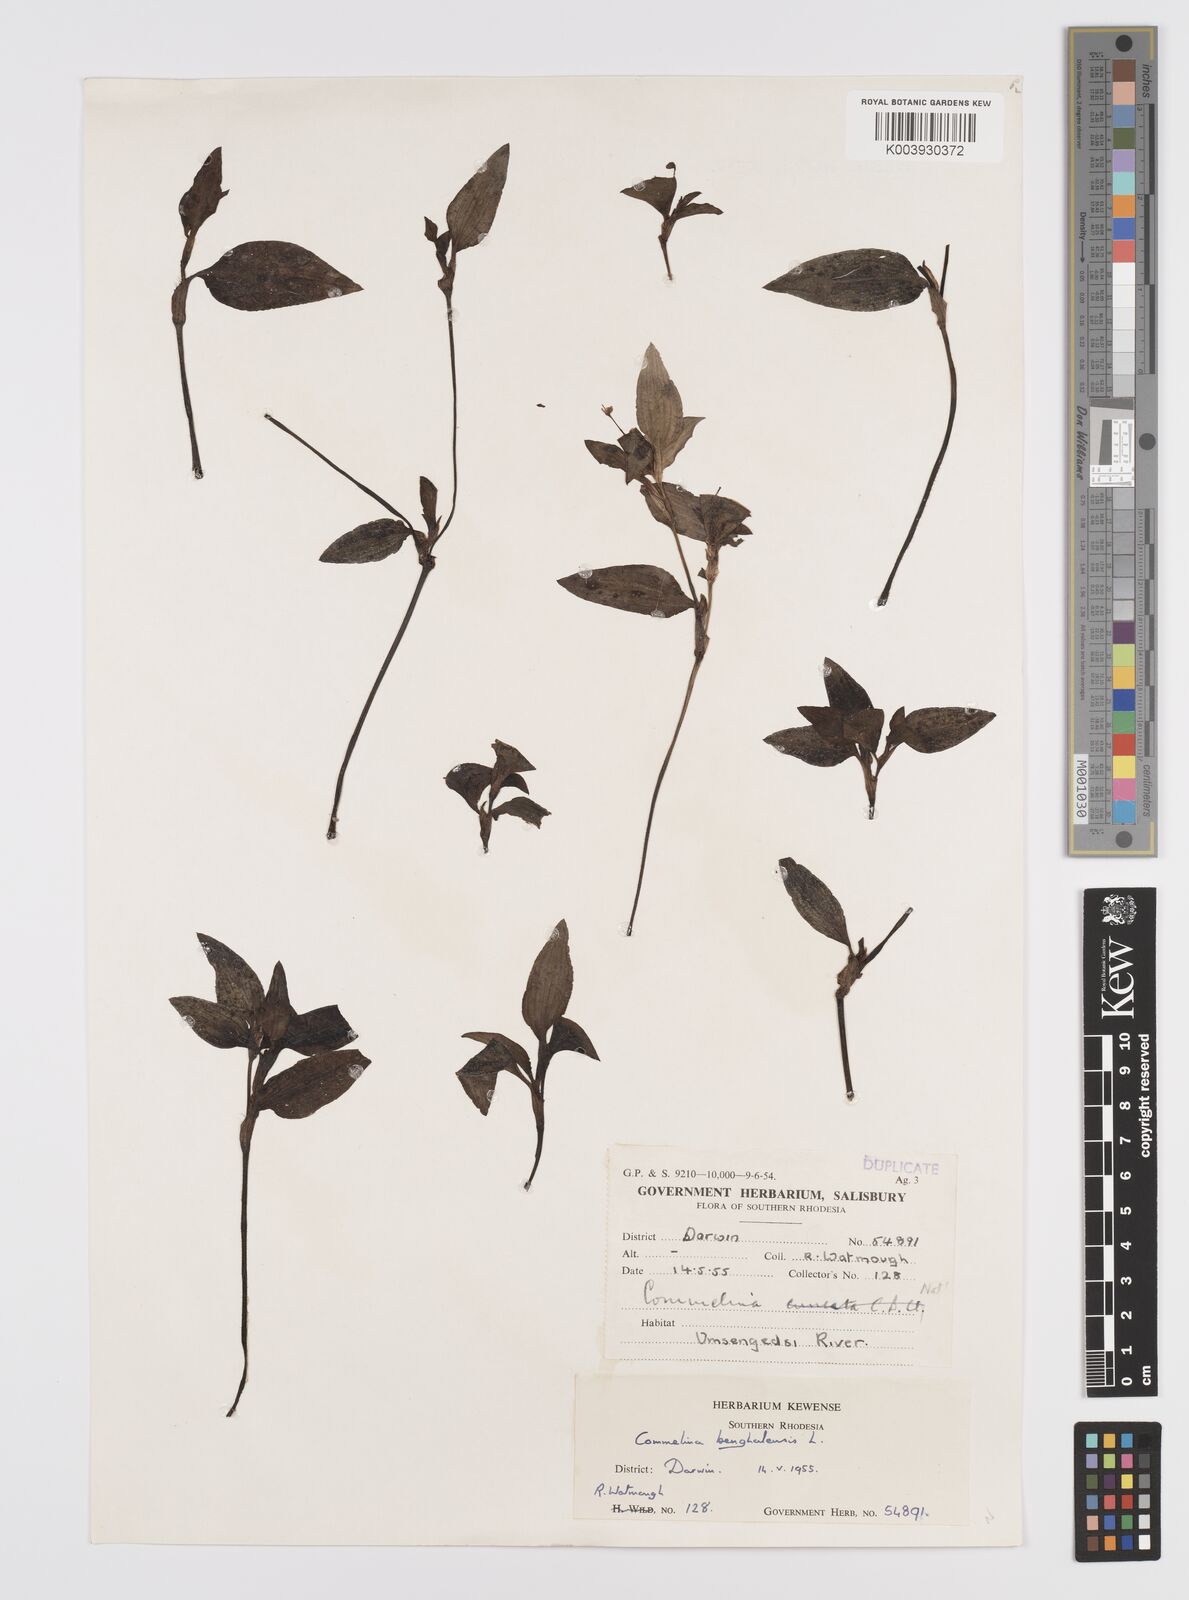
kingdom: Plantae
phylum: Tracheophyta
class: Liliopsida
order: Commelinales
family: Commelinaceae
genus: Commelina
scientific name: Commelina benghalensis
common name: Jio
